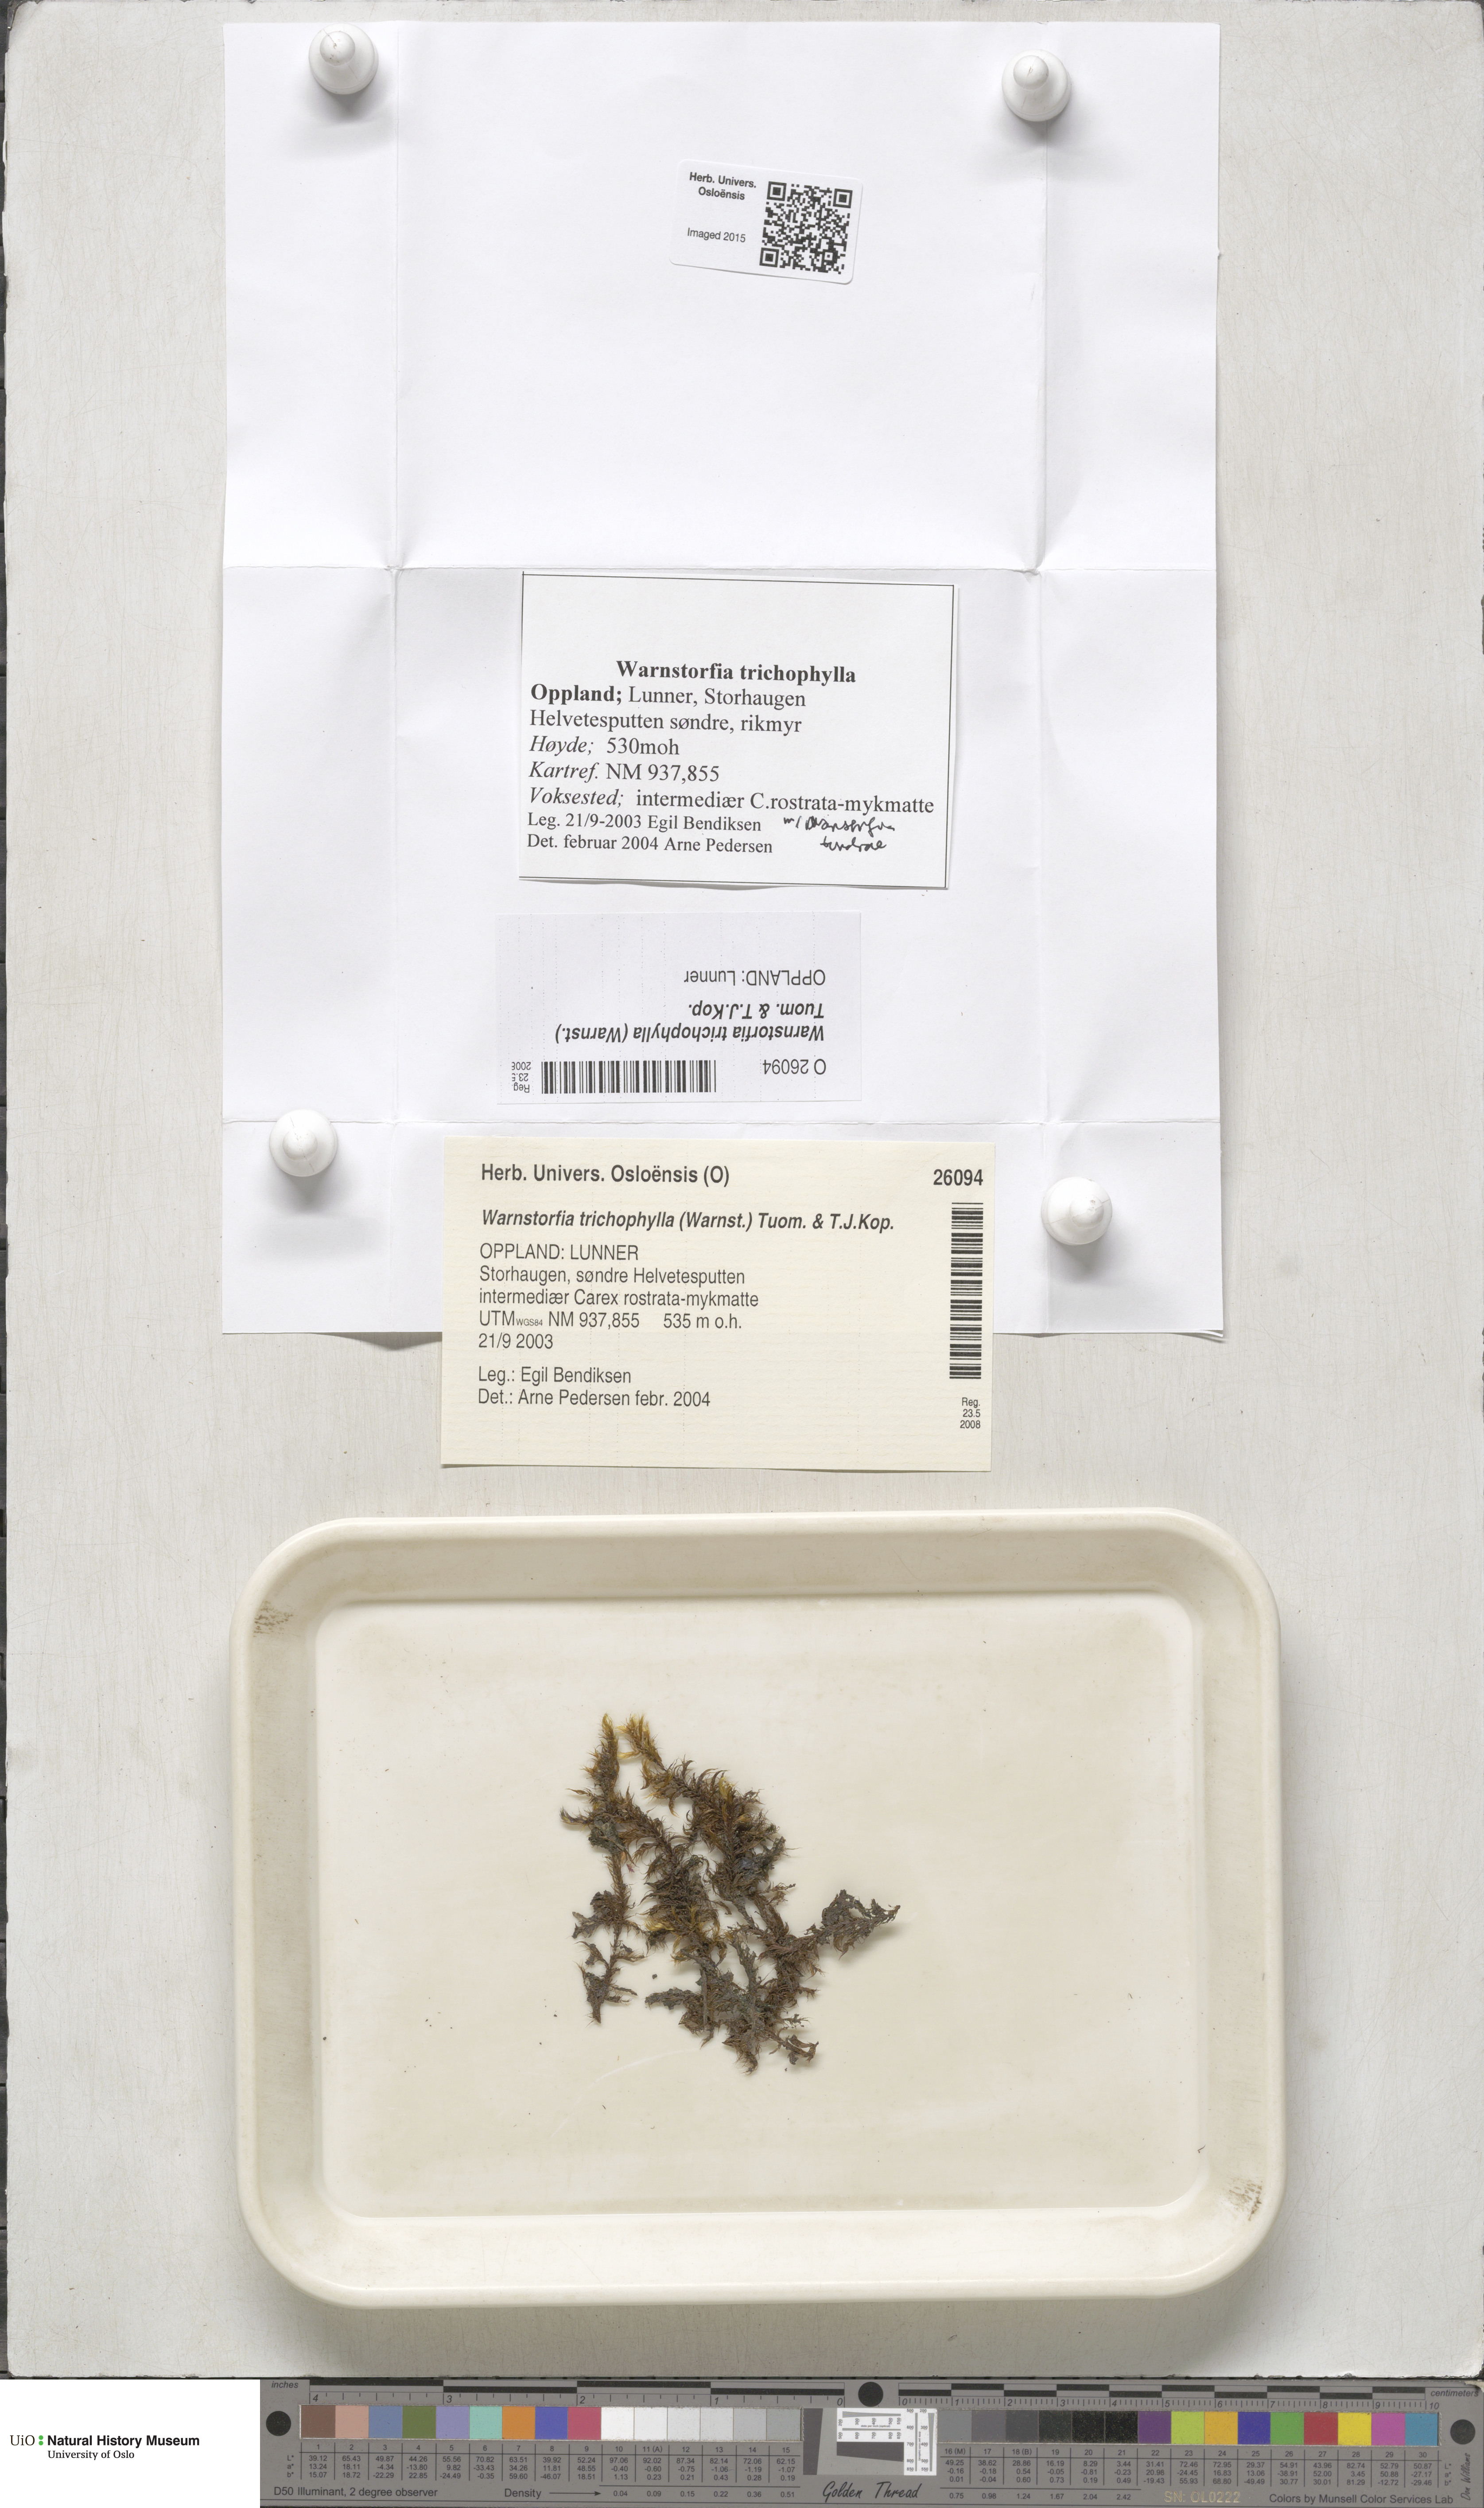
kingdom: Plantae
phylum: Bryophyta
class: Bryopsida
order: Hypnales
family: Calliergonaceae
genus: Sarmentypnum
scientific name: Sarmentypnum trichophyllum
